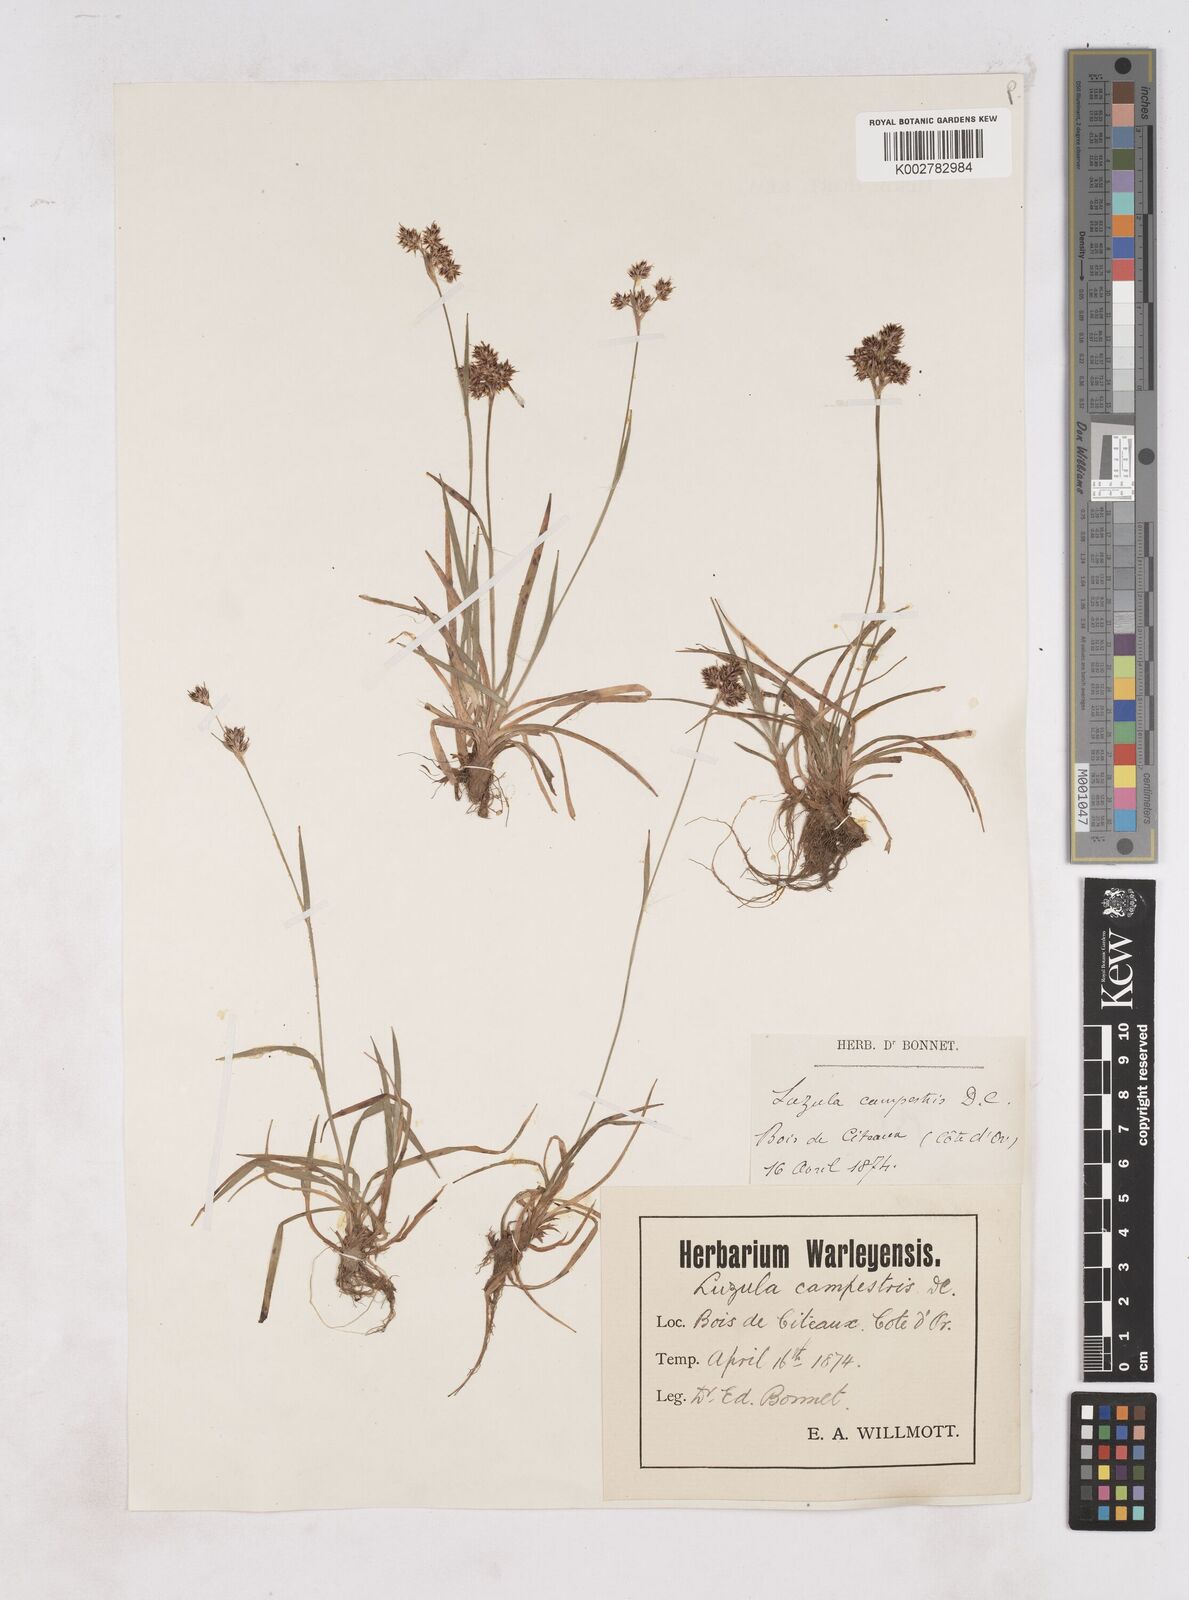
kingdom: Plantae
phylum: Tracheophyta
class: Liliopsida
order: Poales
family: Juncaceae
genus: Luzula
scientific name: Luzula campestris
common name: Field wood-rush
